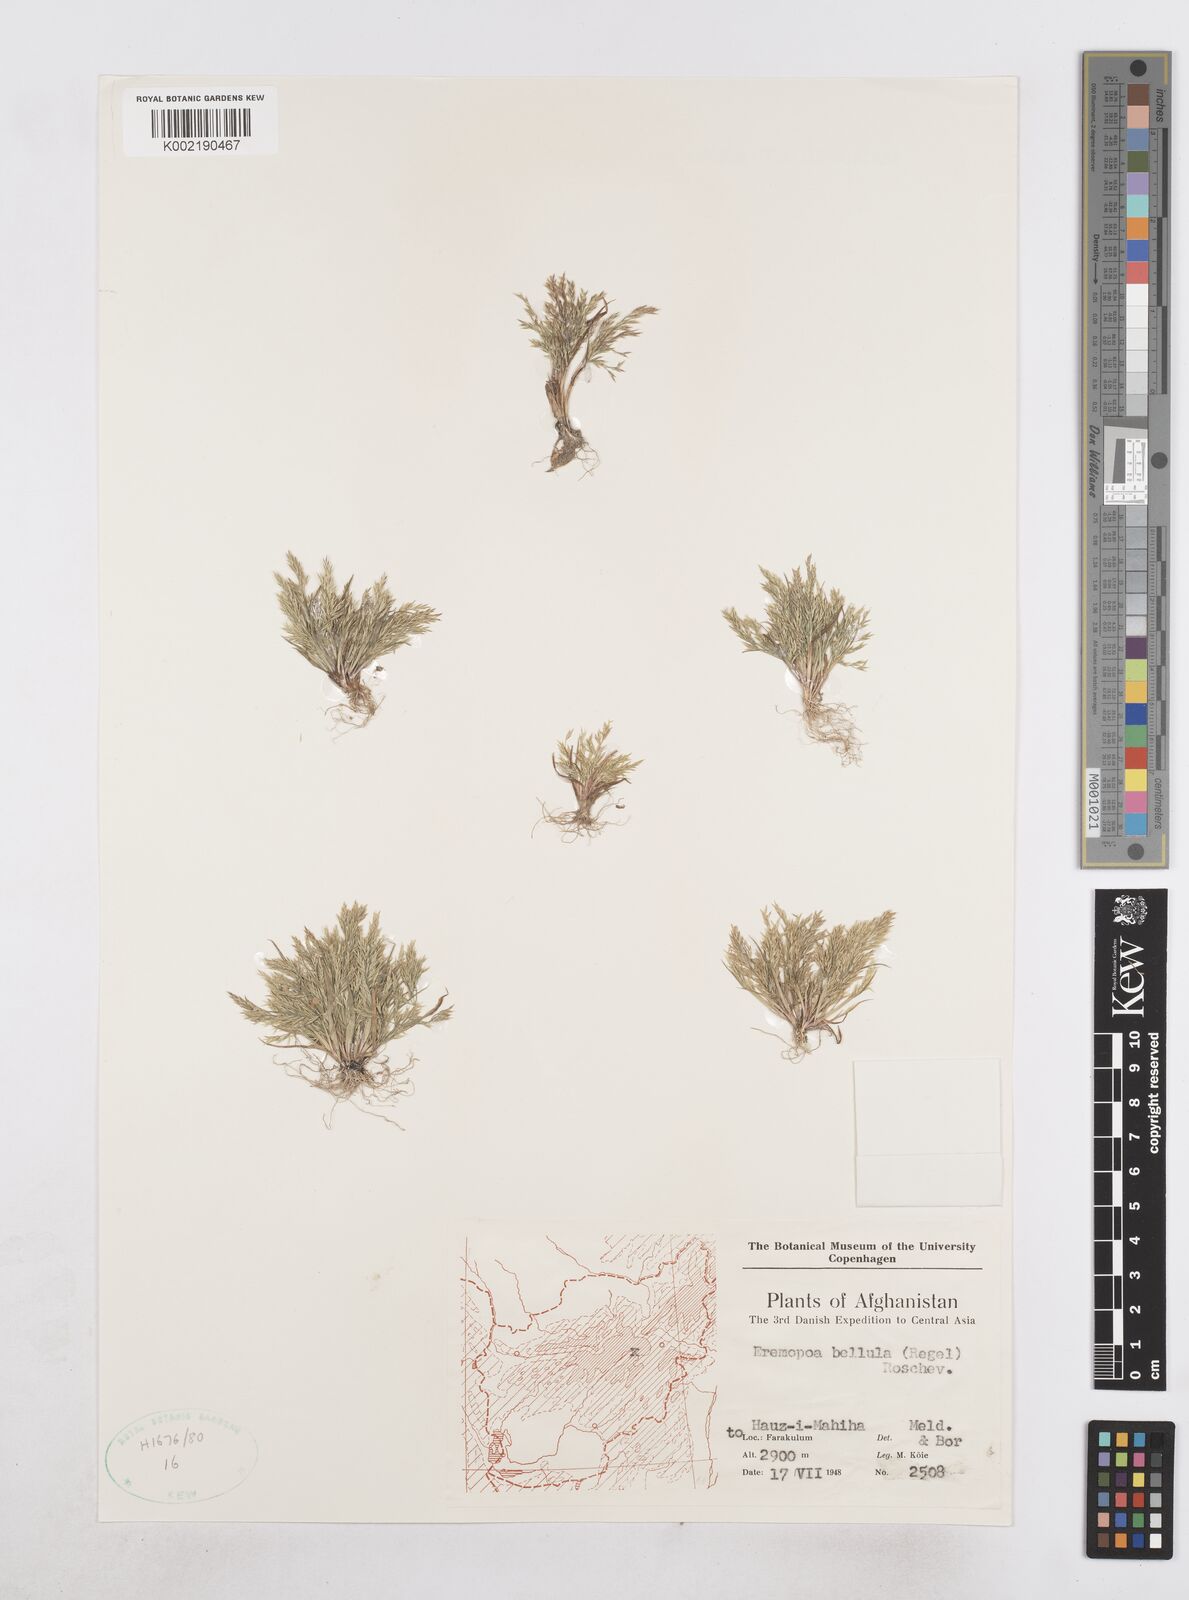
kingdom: Plantae
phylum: Tracheophyta
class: Liliopsida
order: Poales
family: Poaceae
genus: Poa
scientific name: Poa diaphora
